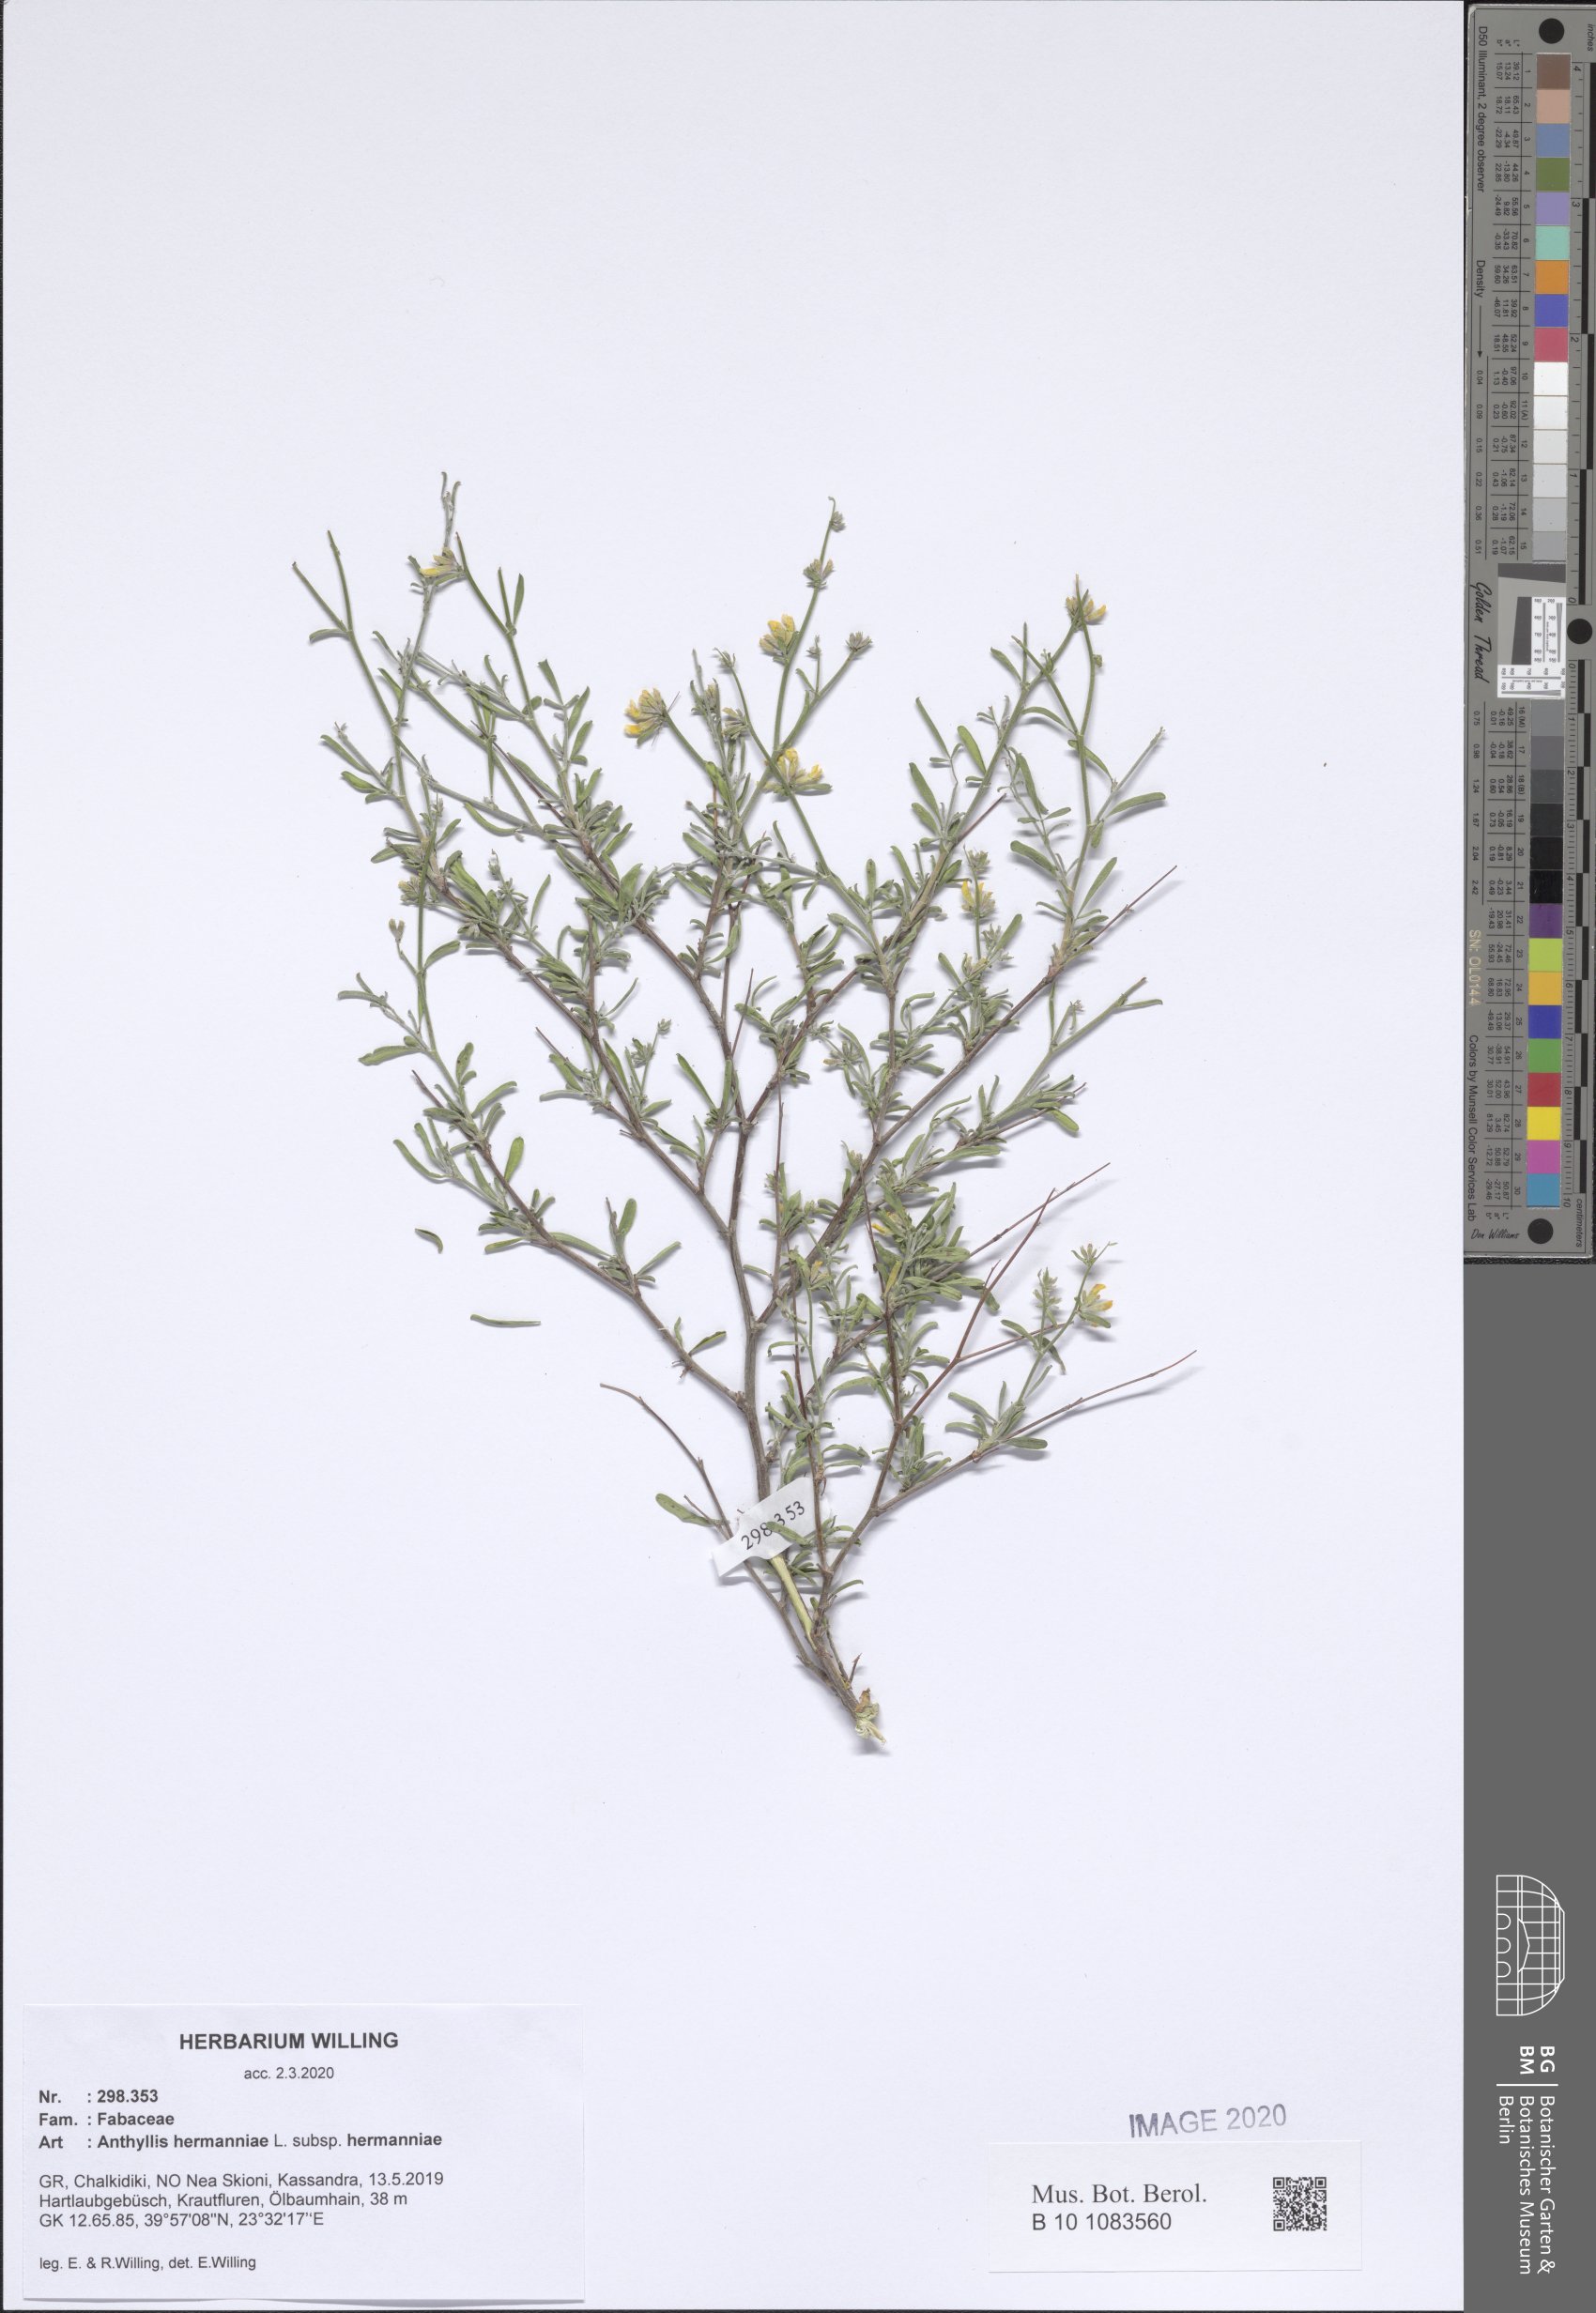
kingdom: Plantae
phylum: Tracheophyta
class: Magnoliopsida
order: Fabales
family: Fabaceae
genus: Anthyllis
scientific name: Anthyllis hermanniae
